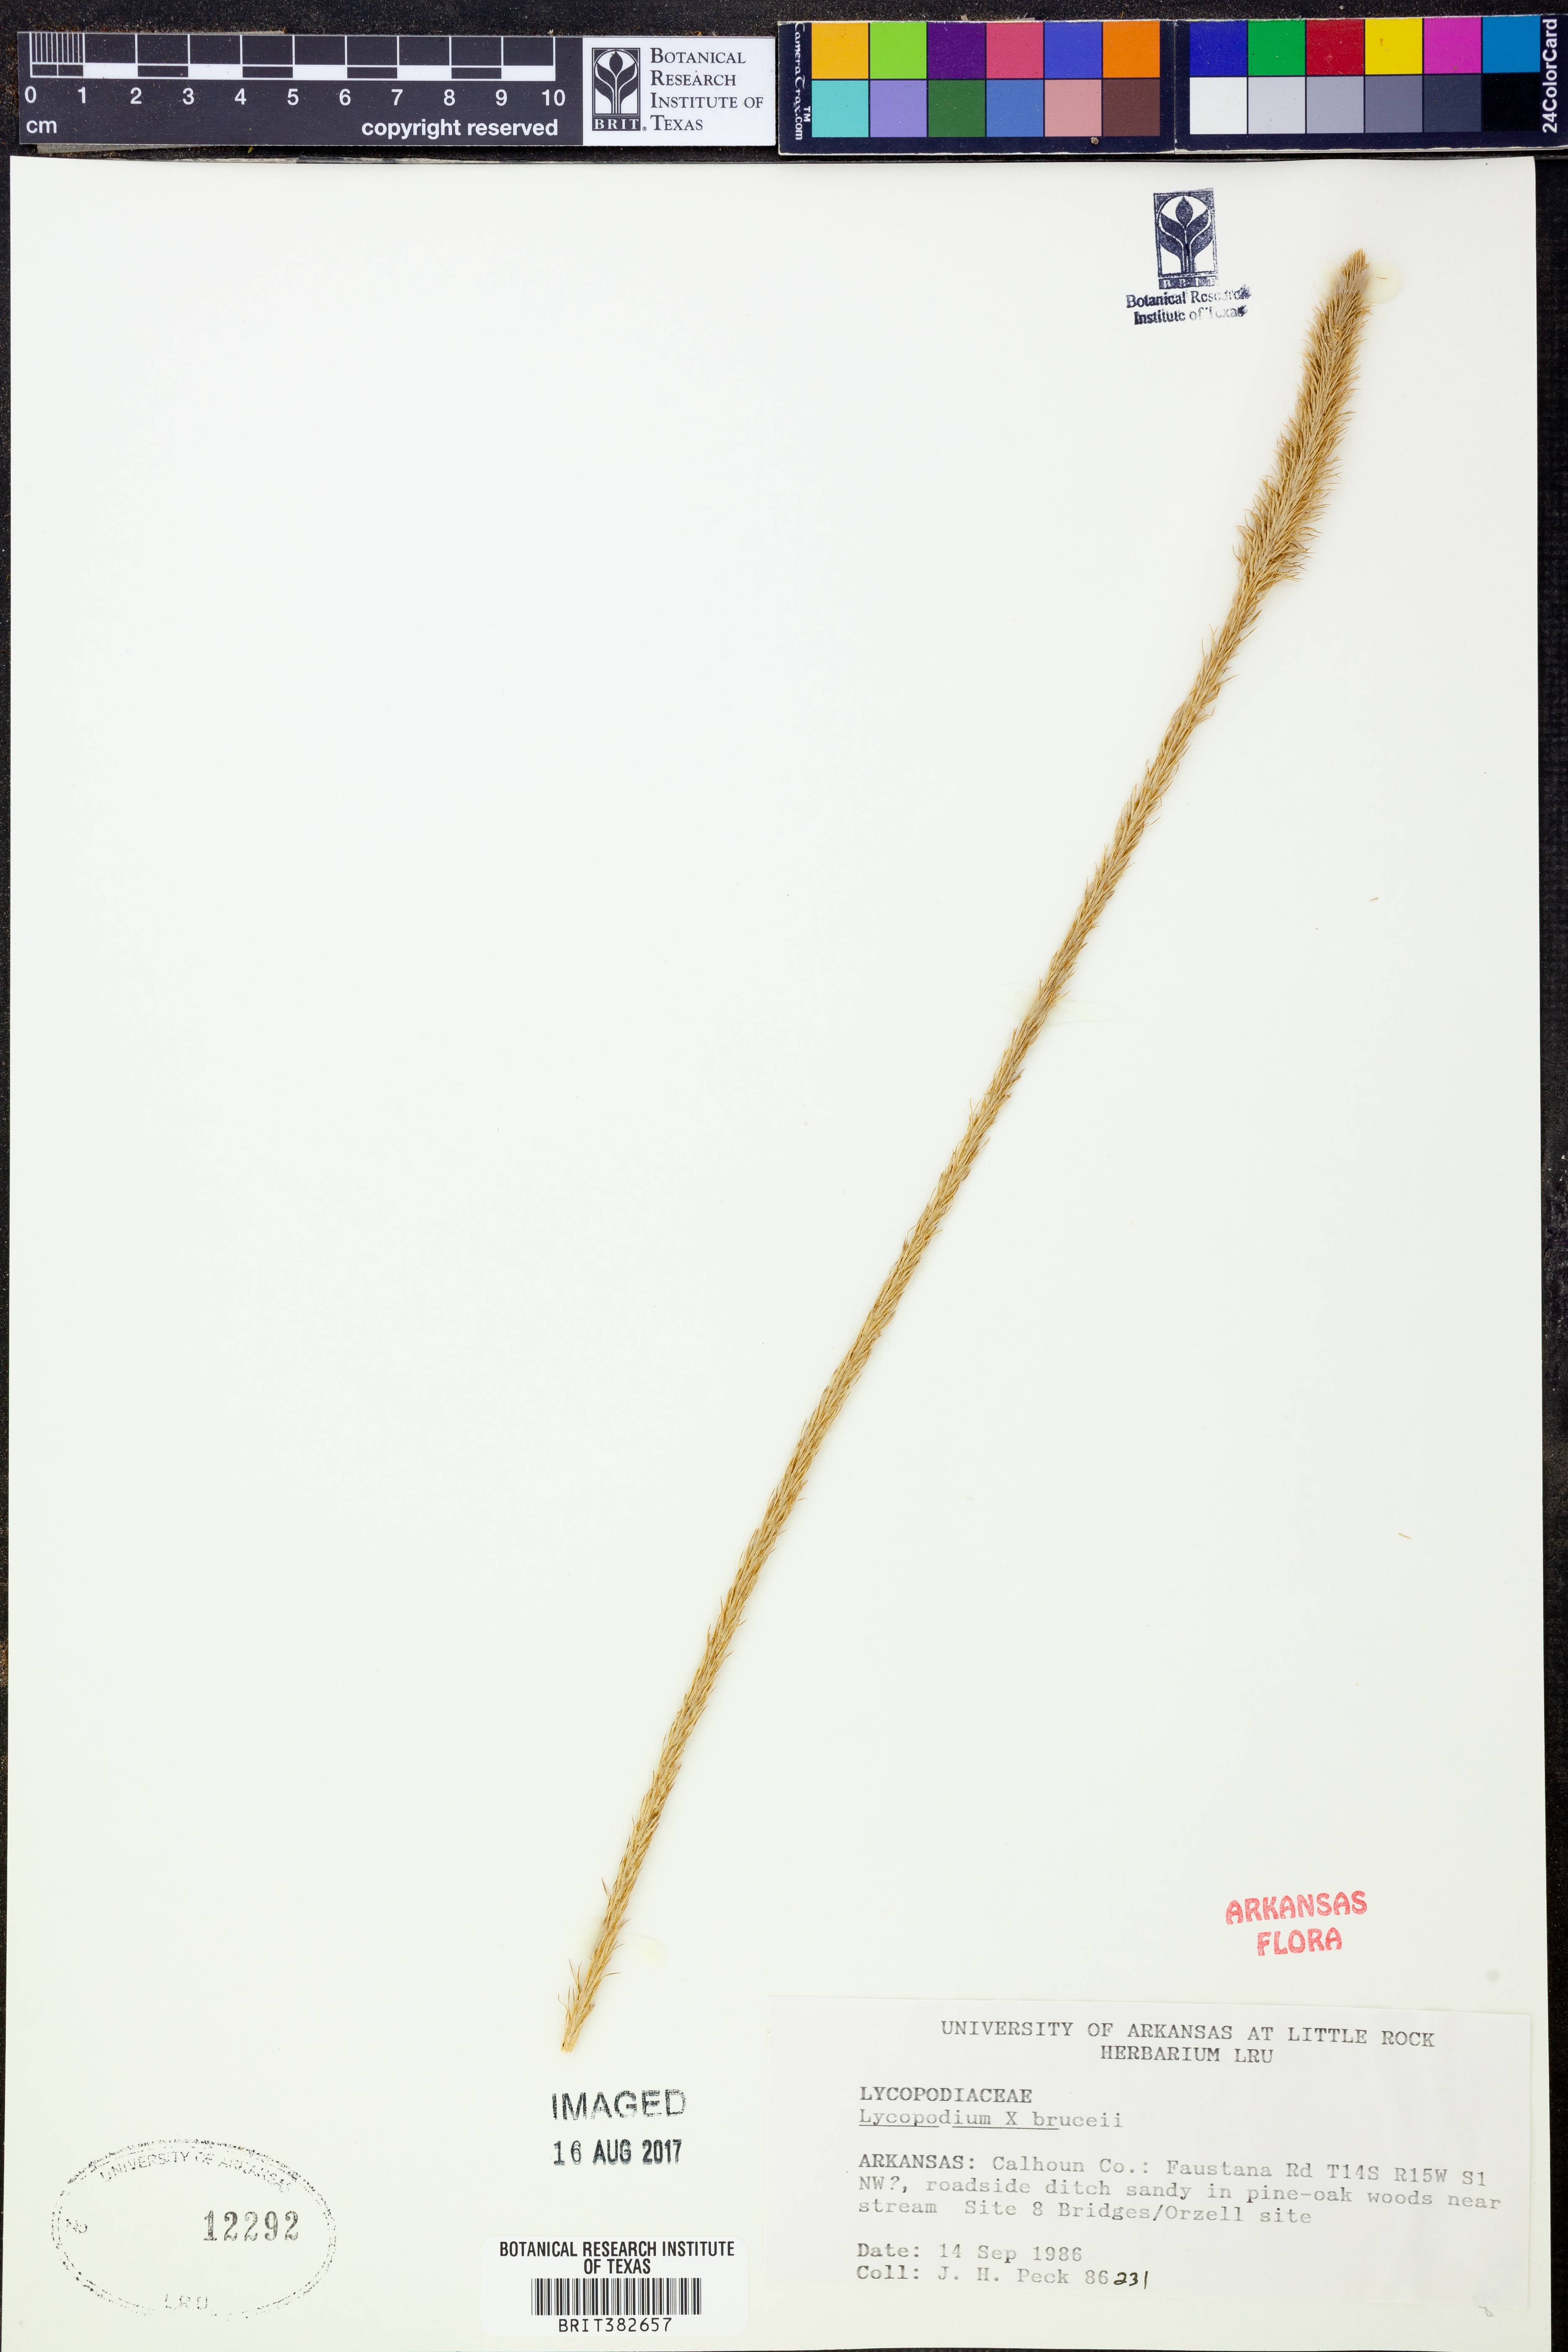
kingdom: Plantae
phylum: Tracheophyta
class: Lycopodiopsida
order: Lycopodiales
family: Lycopodiaceae
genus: Lycopodiella
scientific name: Lycopodiella brucei
